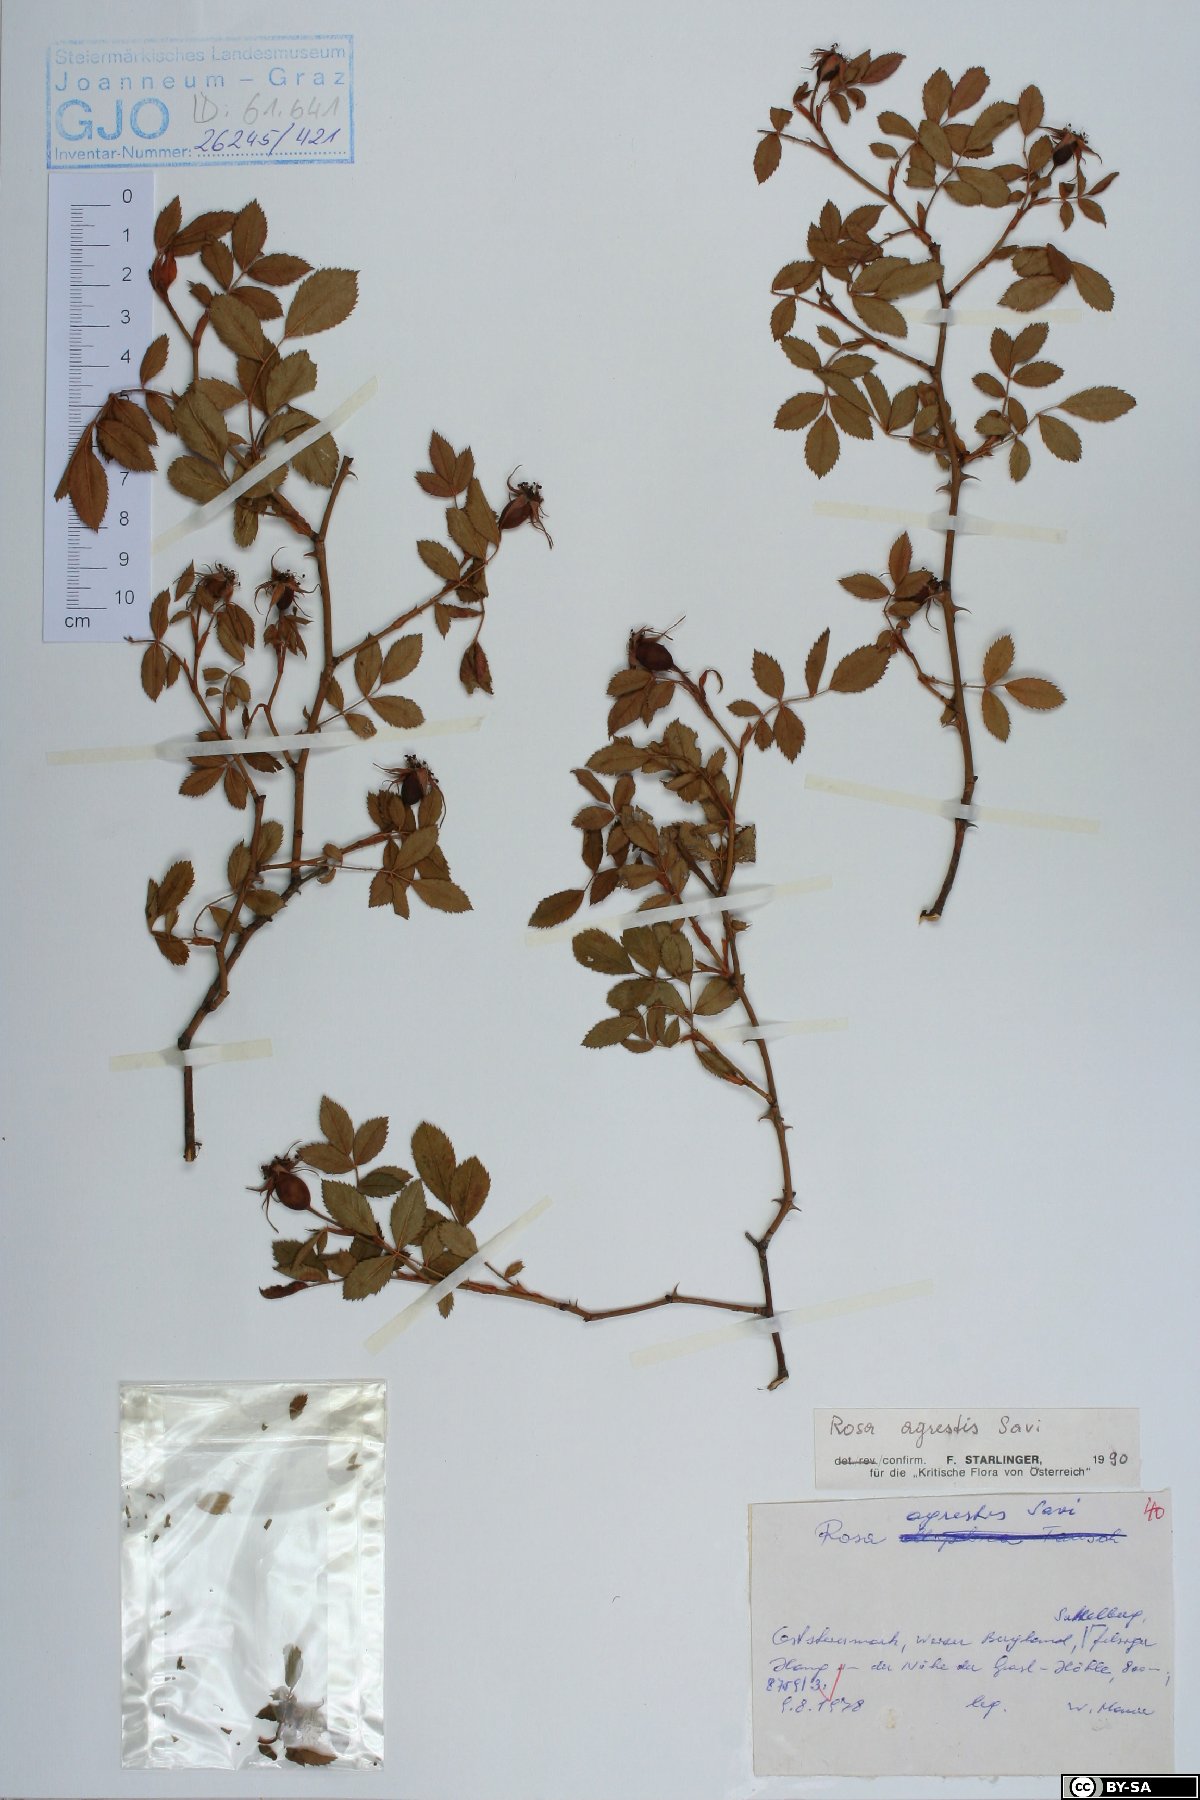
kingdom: Plantae
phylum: Tracheophyta
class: Magnoliopsida
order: Rosales
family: Rosaceae
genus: Rosa
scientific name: Rosa agrestis
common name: Fieldbriar
